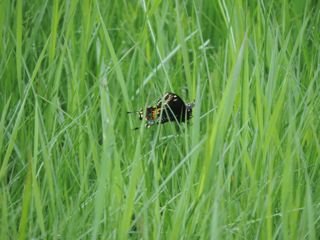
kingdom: Animalia
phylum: Arthropoda
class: Insecta
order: Lepidoptera
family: Papilionidae
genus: Papilio
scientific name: Papilio polyxenes
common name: Black Swallowtail
